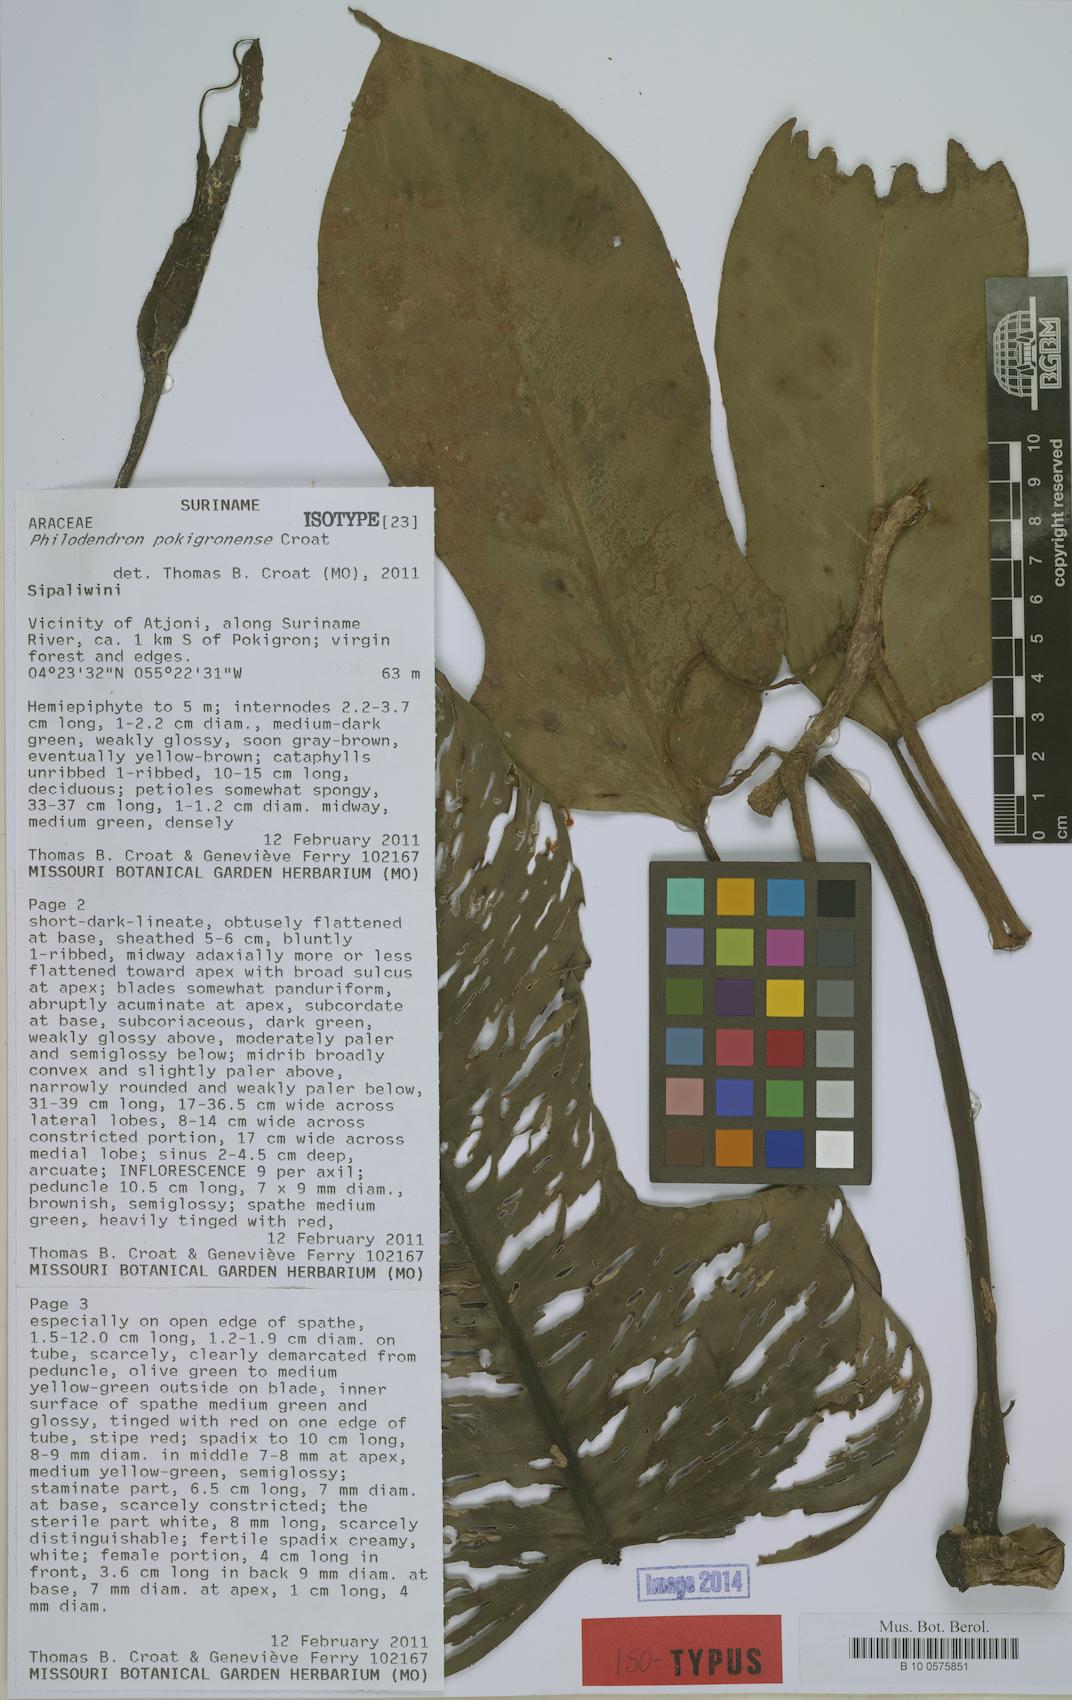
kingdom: Plantae
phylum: Tracheophyta
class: Liliopsida
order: Alismatales
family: Araceae
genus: Philodendron
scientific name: Philodendron pokigronense
